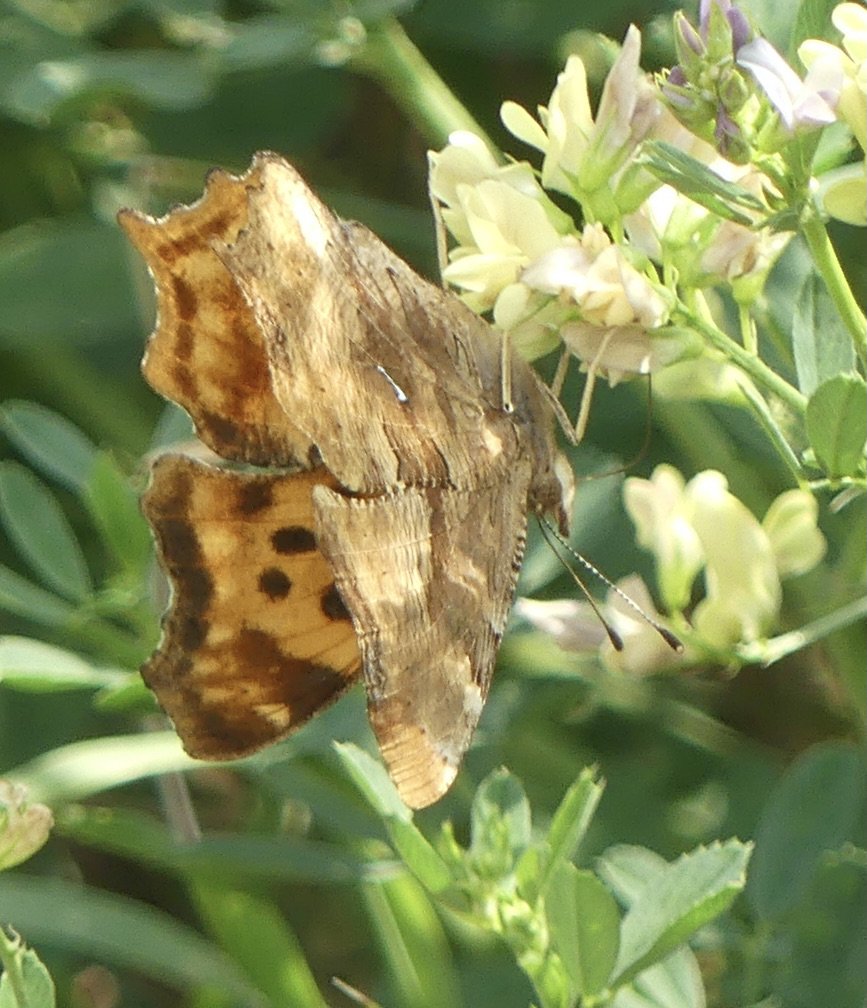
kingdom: Animalia
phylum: Arthropoda
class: Insecta
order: Lepidoptera
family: Nymphalidae
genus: Polygonia
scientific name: Polygonia satyrus
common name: Satyr Comma
